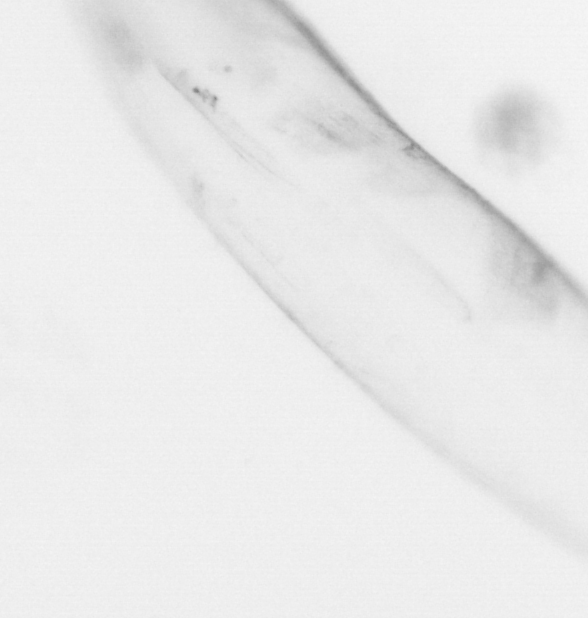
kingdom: Animalia
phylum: Chaetognatha
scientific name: Chaetognatha
